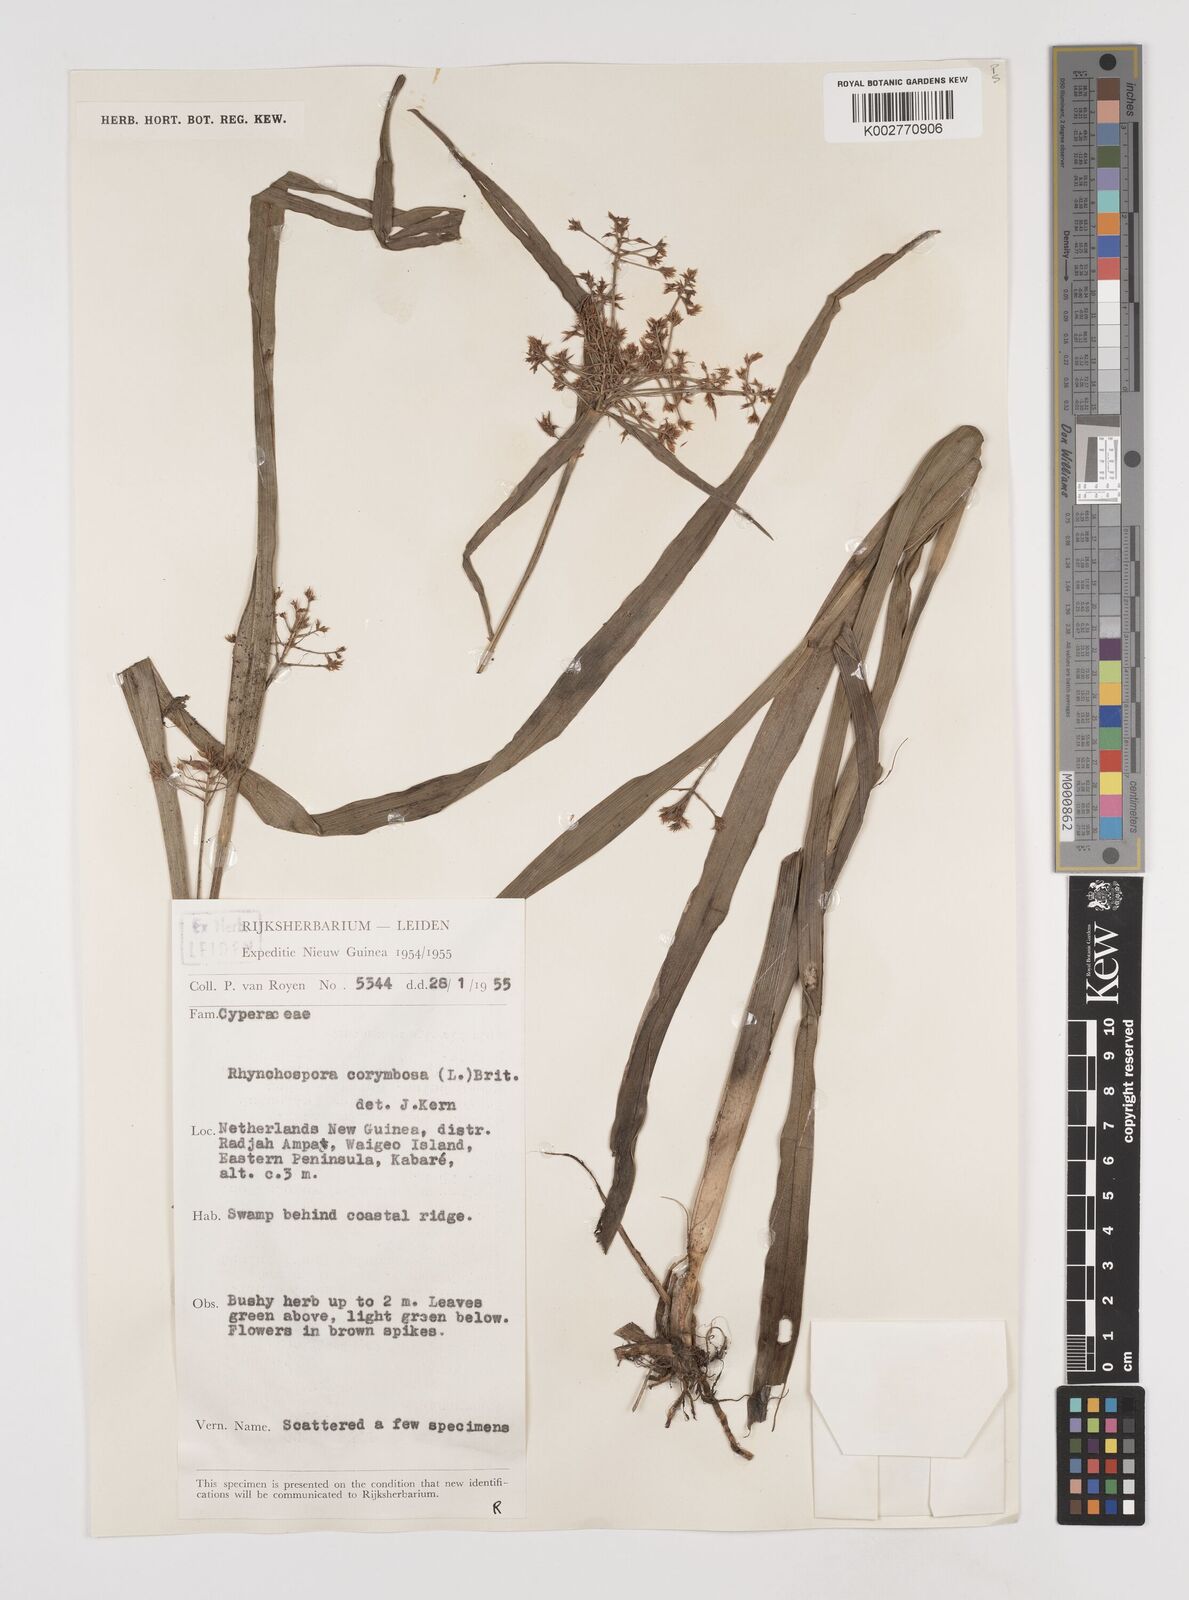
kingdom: Plantae
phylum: Tracheophyta
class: Liliopsida
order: Poales
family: Cyperaceae
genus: Rhynchospora
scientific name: Rhynchospora corymbosa
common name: Golden beak sedge
